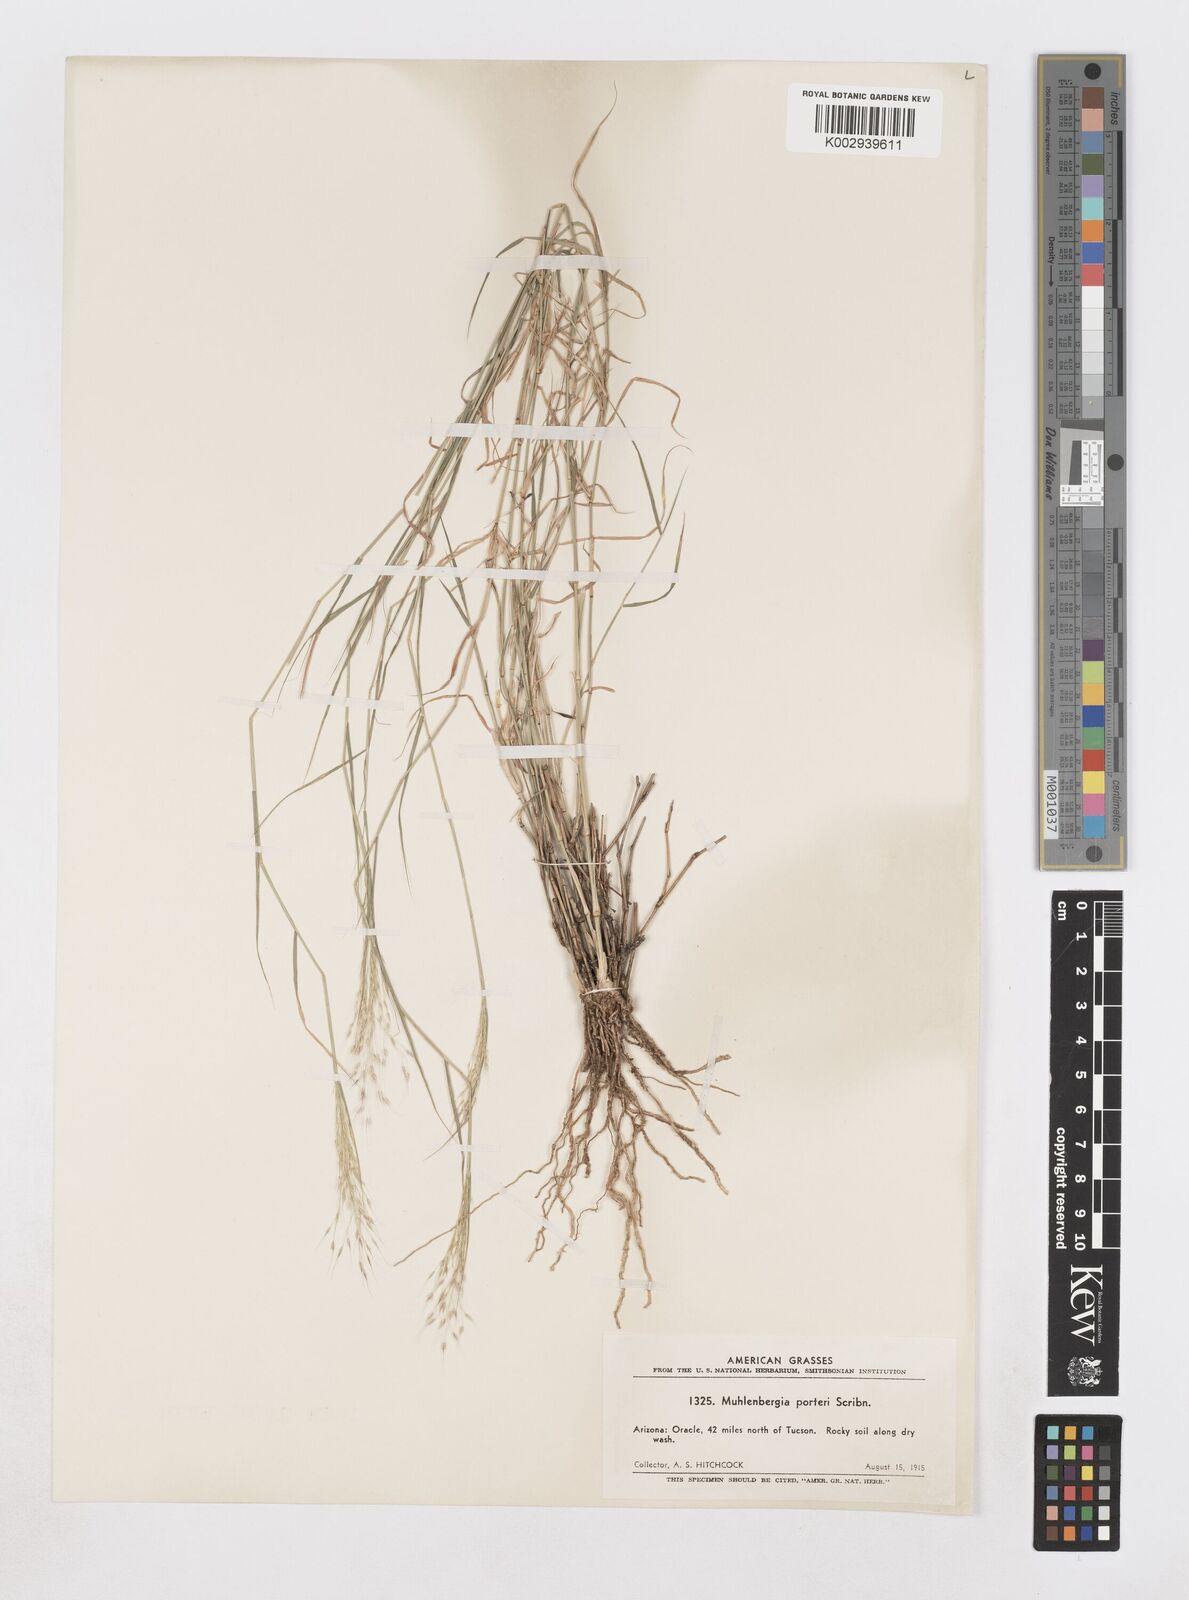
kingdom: Plantae
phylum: Tracheophyta
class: Liliopsida
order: Poales
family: Poaceae
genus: Muhlenbergia
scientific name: Muhlenbergia porteri
